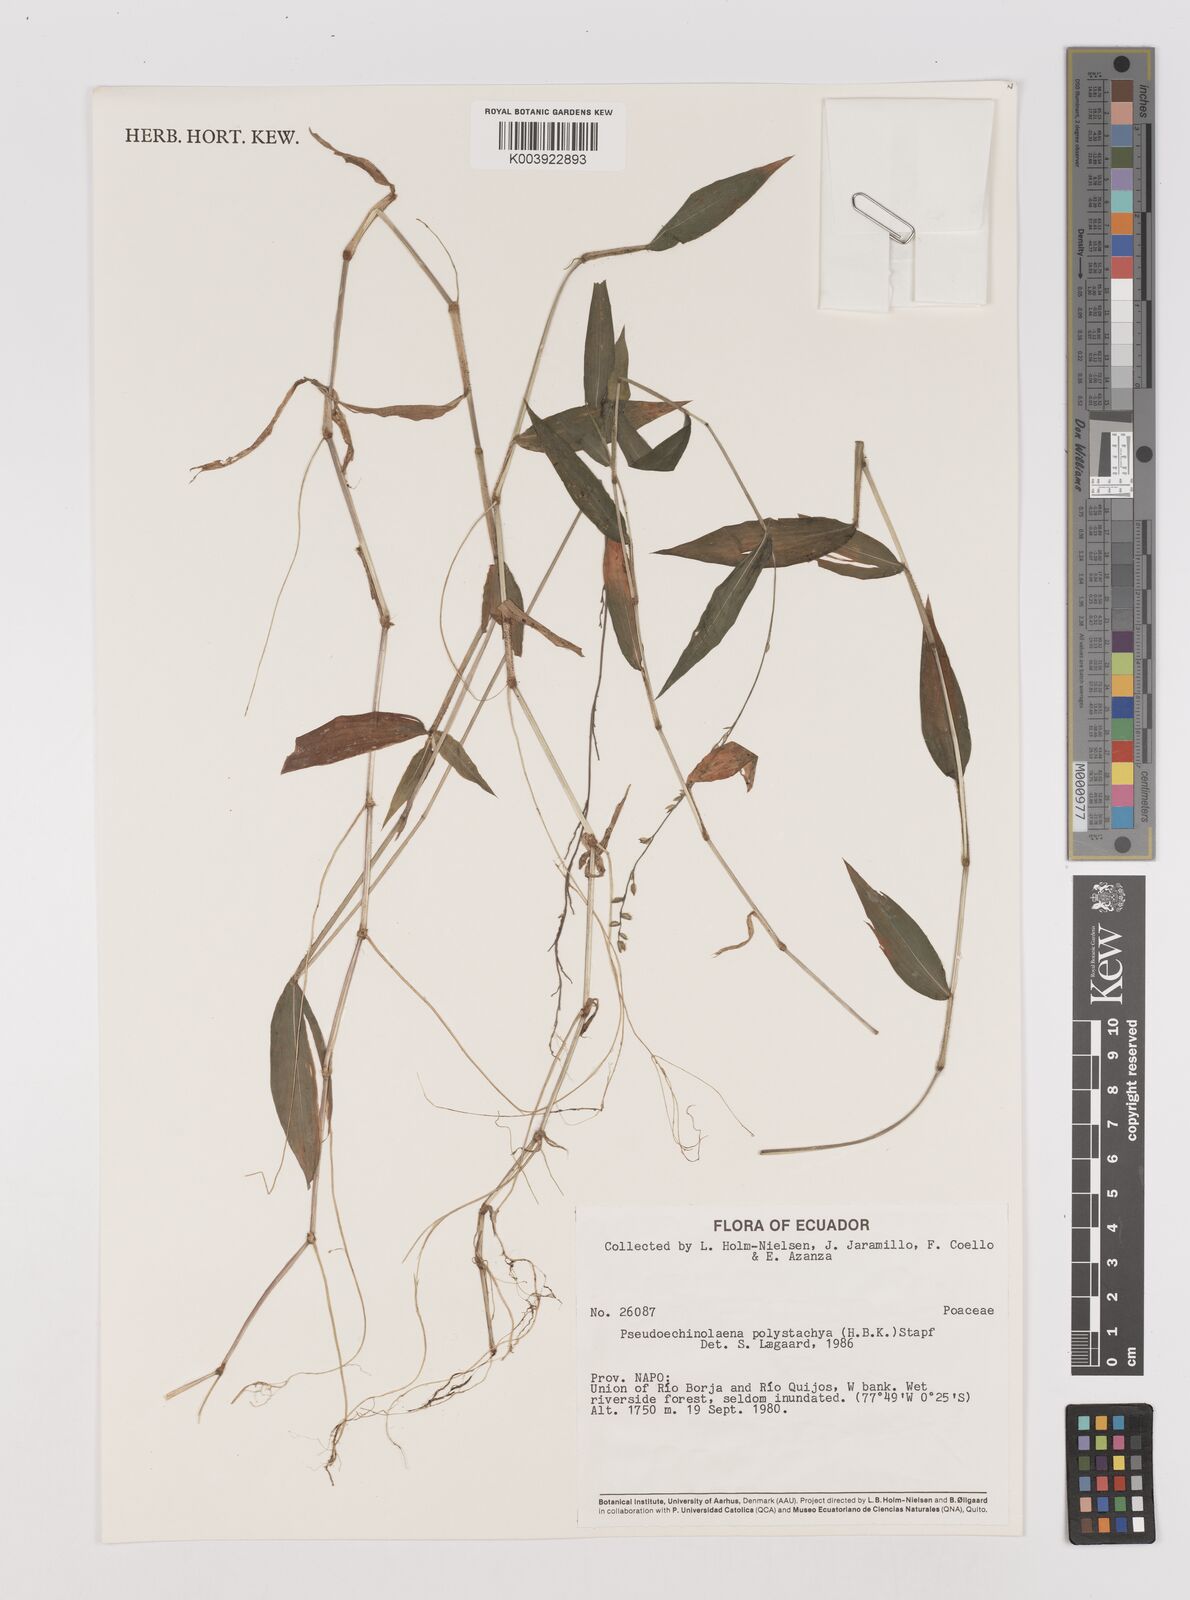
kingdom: Plantae
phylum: Tracheophyta
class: Liliopsida
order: Poales
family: Poaceae
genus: Pseudechinolaena
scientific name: Pseudechinolaena polystachya
